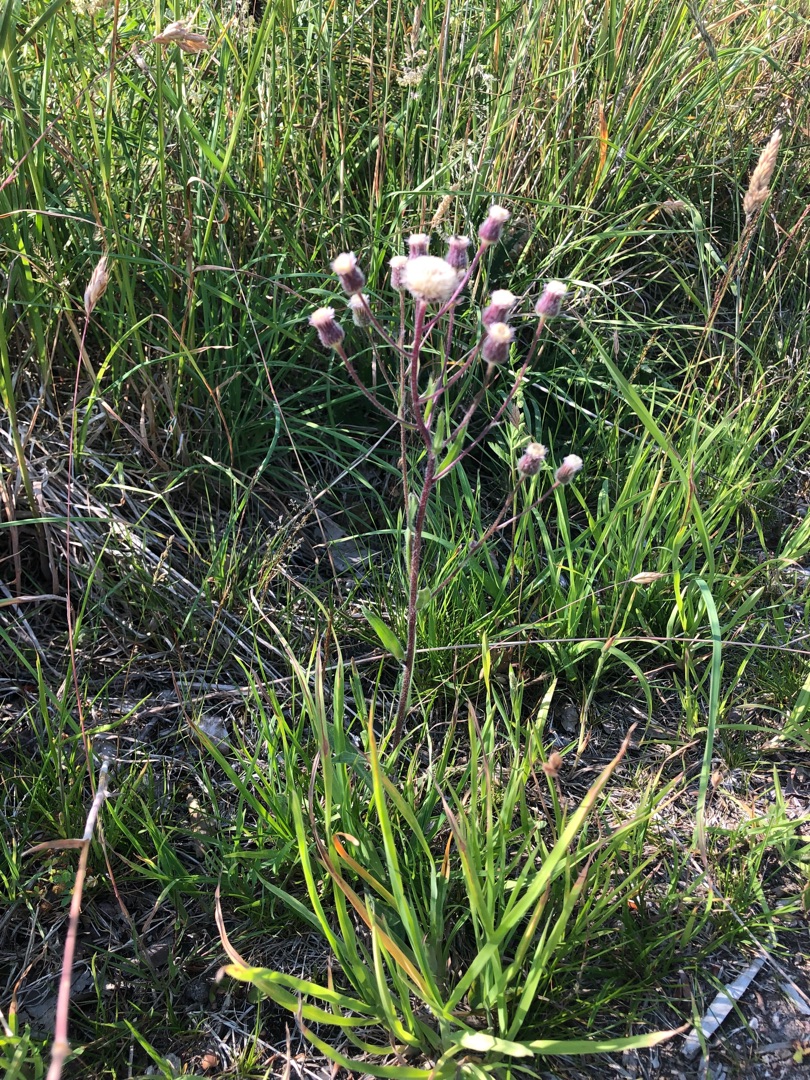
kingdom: Plantae
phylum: Tracheophyta
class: Magnoliopsida
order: Asterales
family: Asteraceae
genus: Erigeron
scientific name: Erigeron acris
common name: Bitter bakkestjerne
